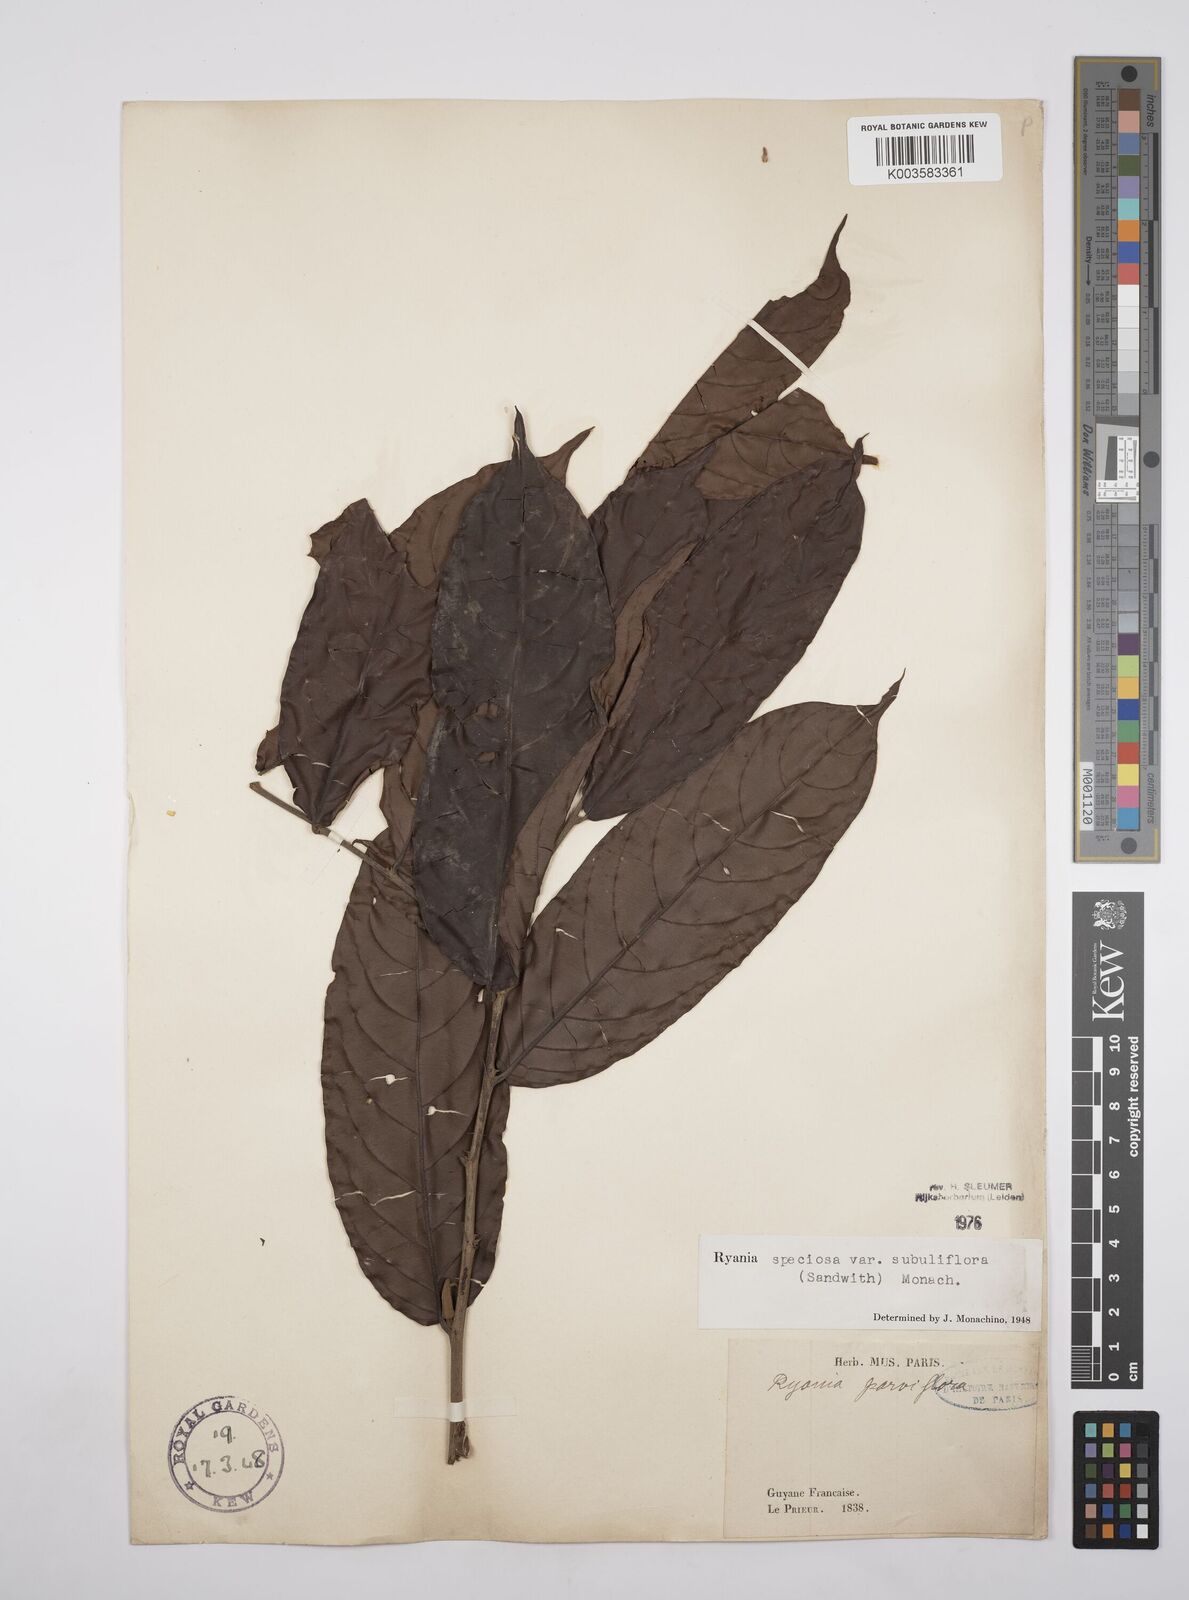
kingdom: Plantae
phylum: Tracheophyta
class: Magnoliopsida
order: Malpighiales
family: Salicaceae
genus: Ryania
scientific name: Ryania speciosa
